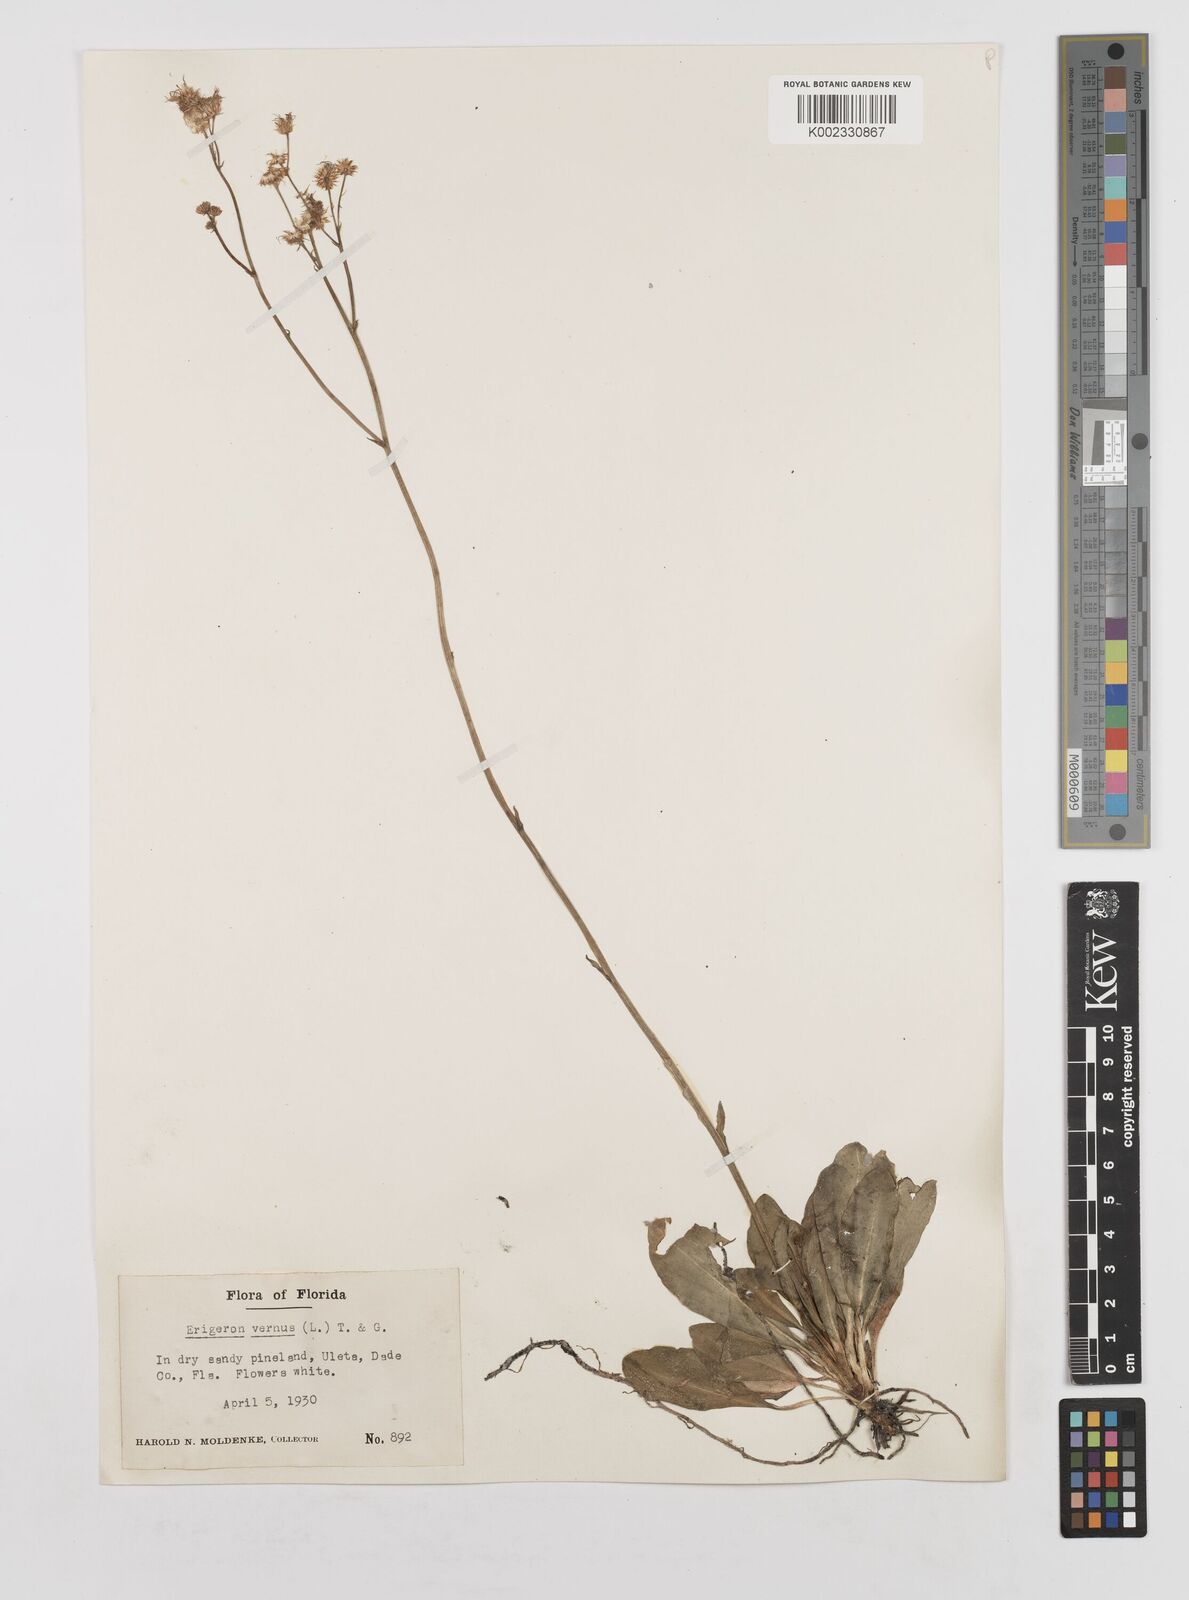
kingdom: Plantae
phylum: Tracheophyta
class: Magnoliopsida
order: Asterales
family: Asteraceae
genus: Erigeron
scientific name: Erigeron vernus
